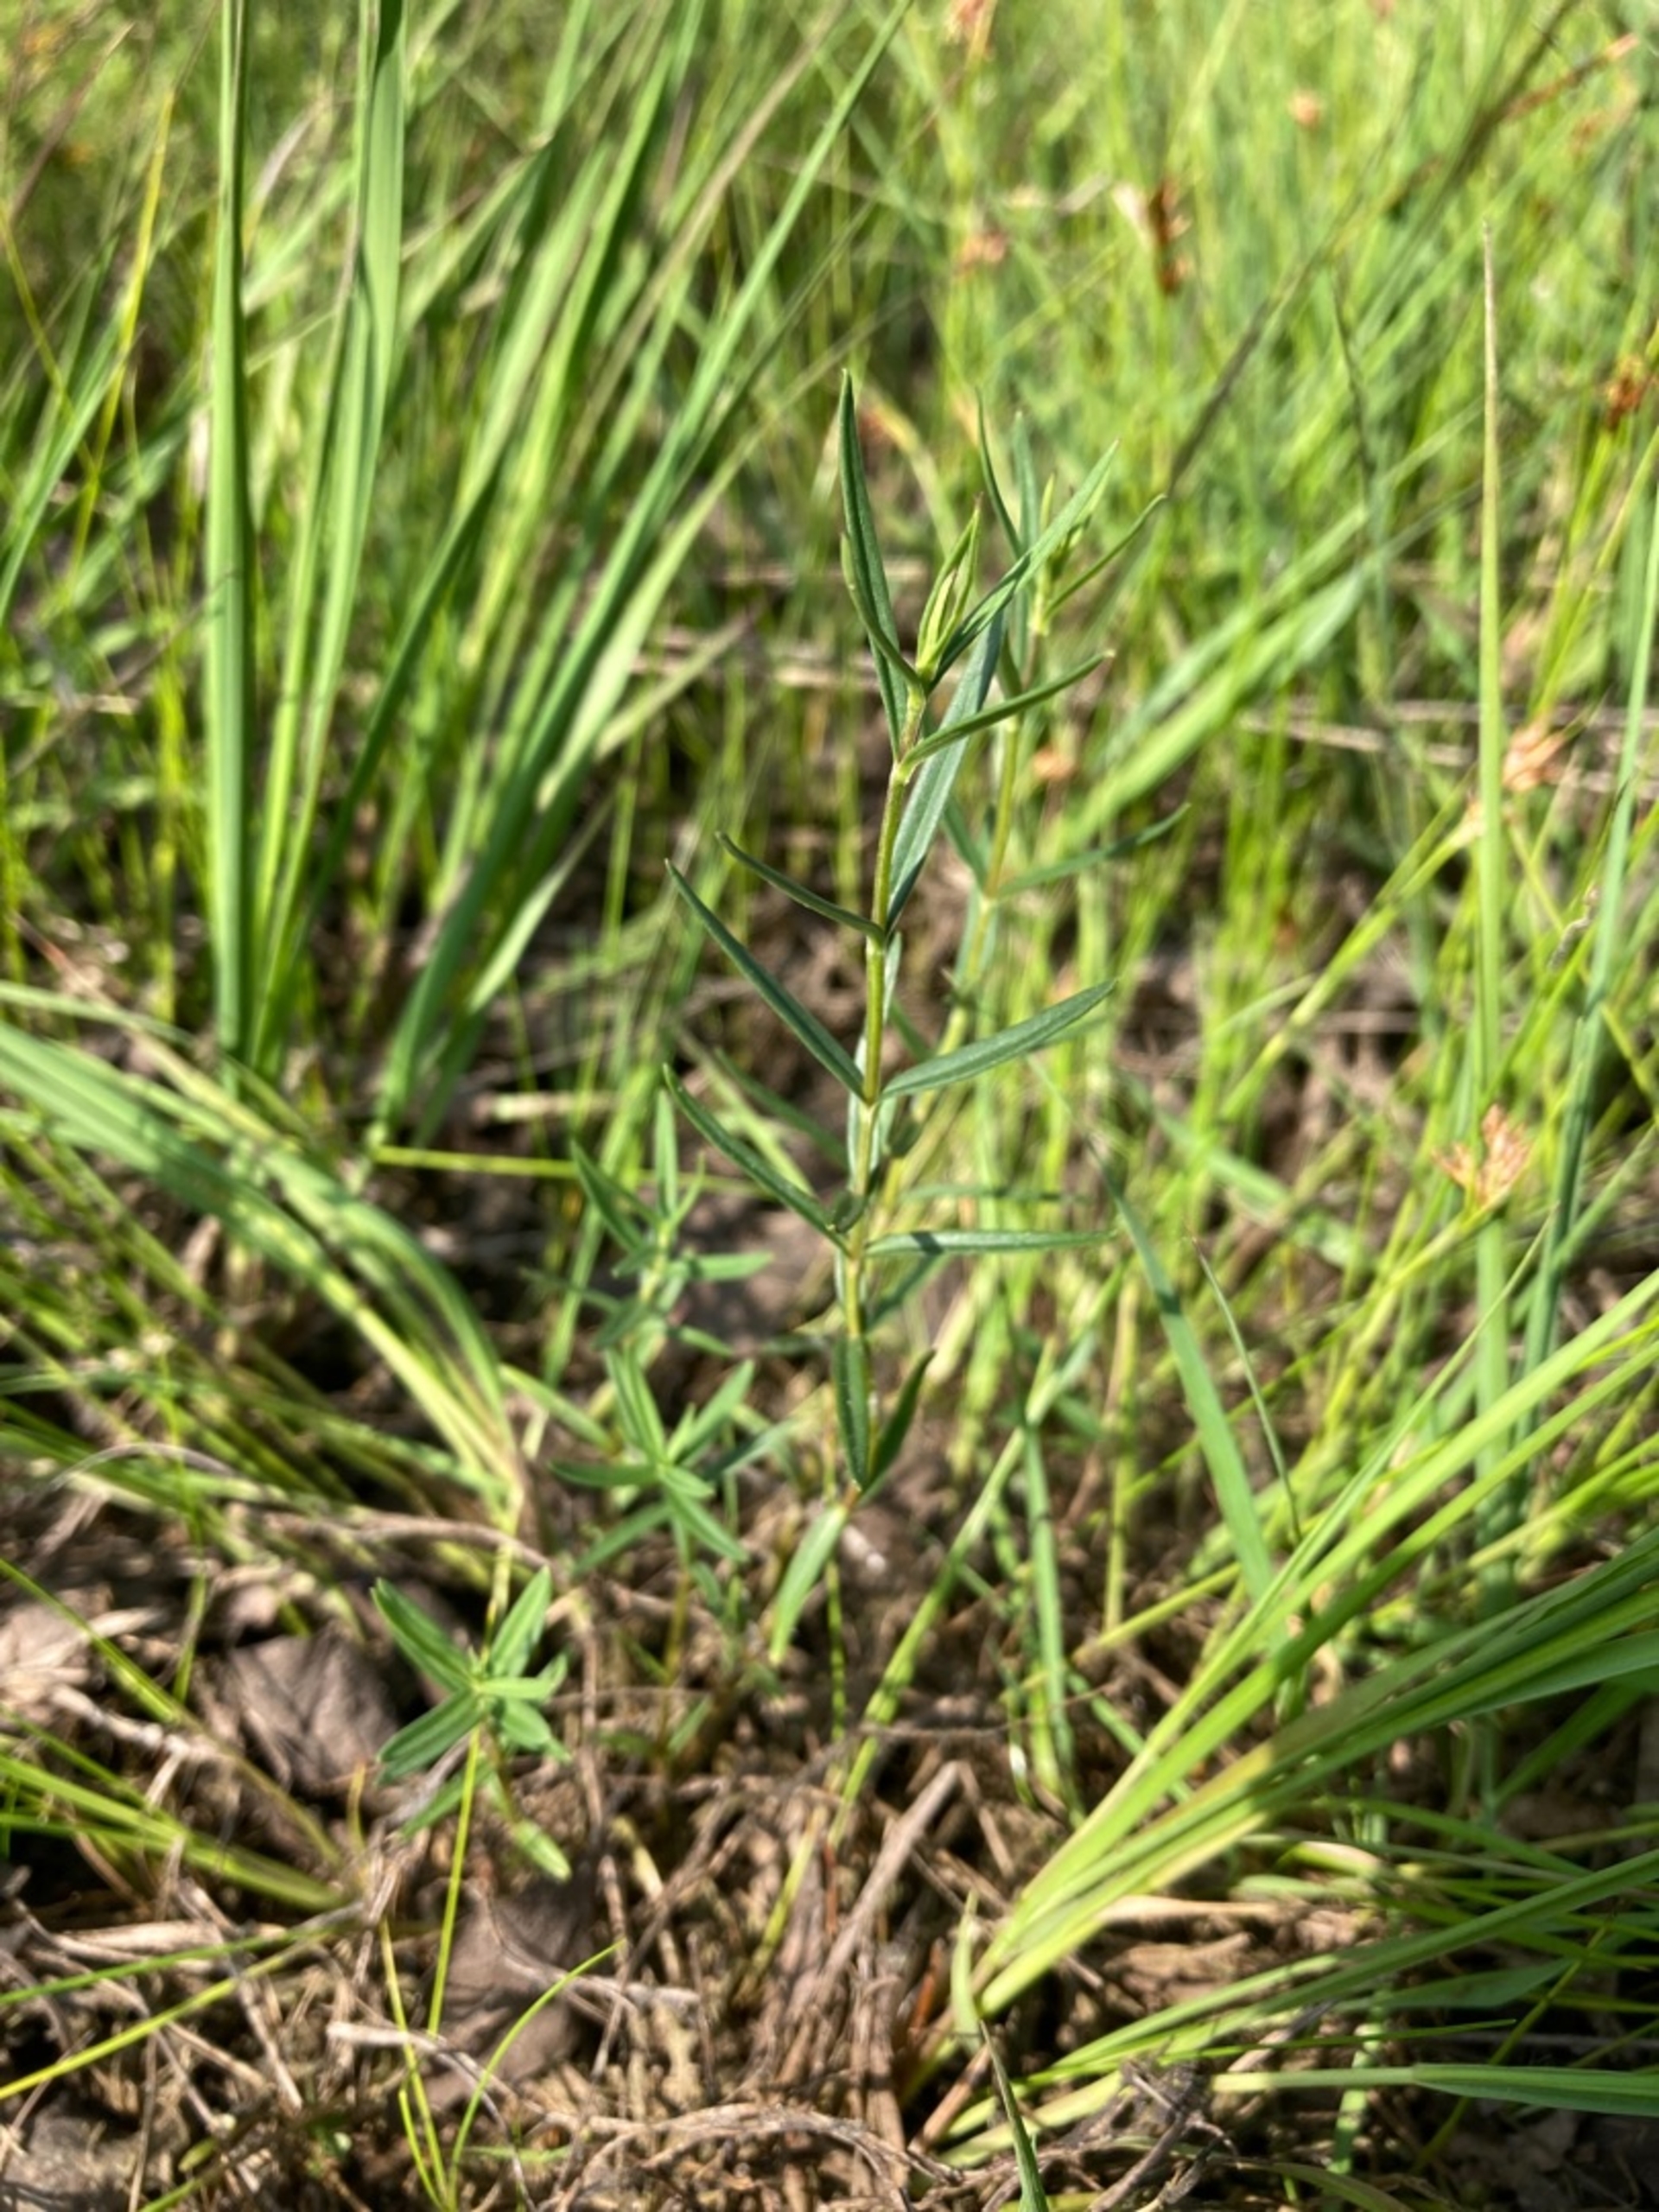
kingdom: Plantae
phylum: Tracheophyta
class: Magnoliopsida
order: Gentianales
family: Gentianaceae
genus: Gentiana
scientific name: Gentiana pneumonanthe
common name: Klokke-ensian
